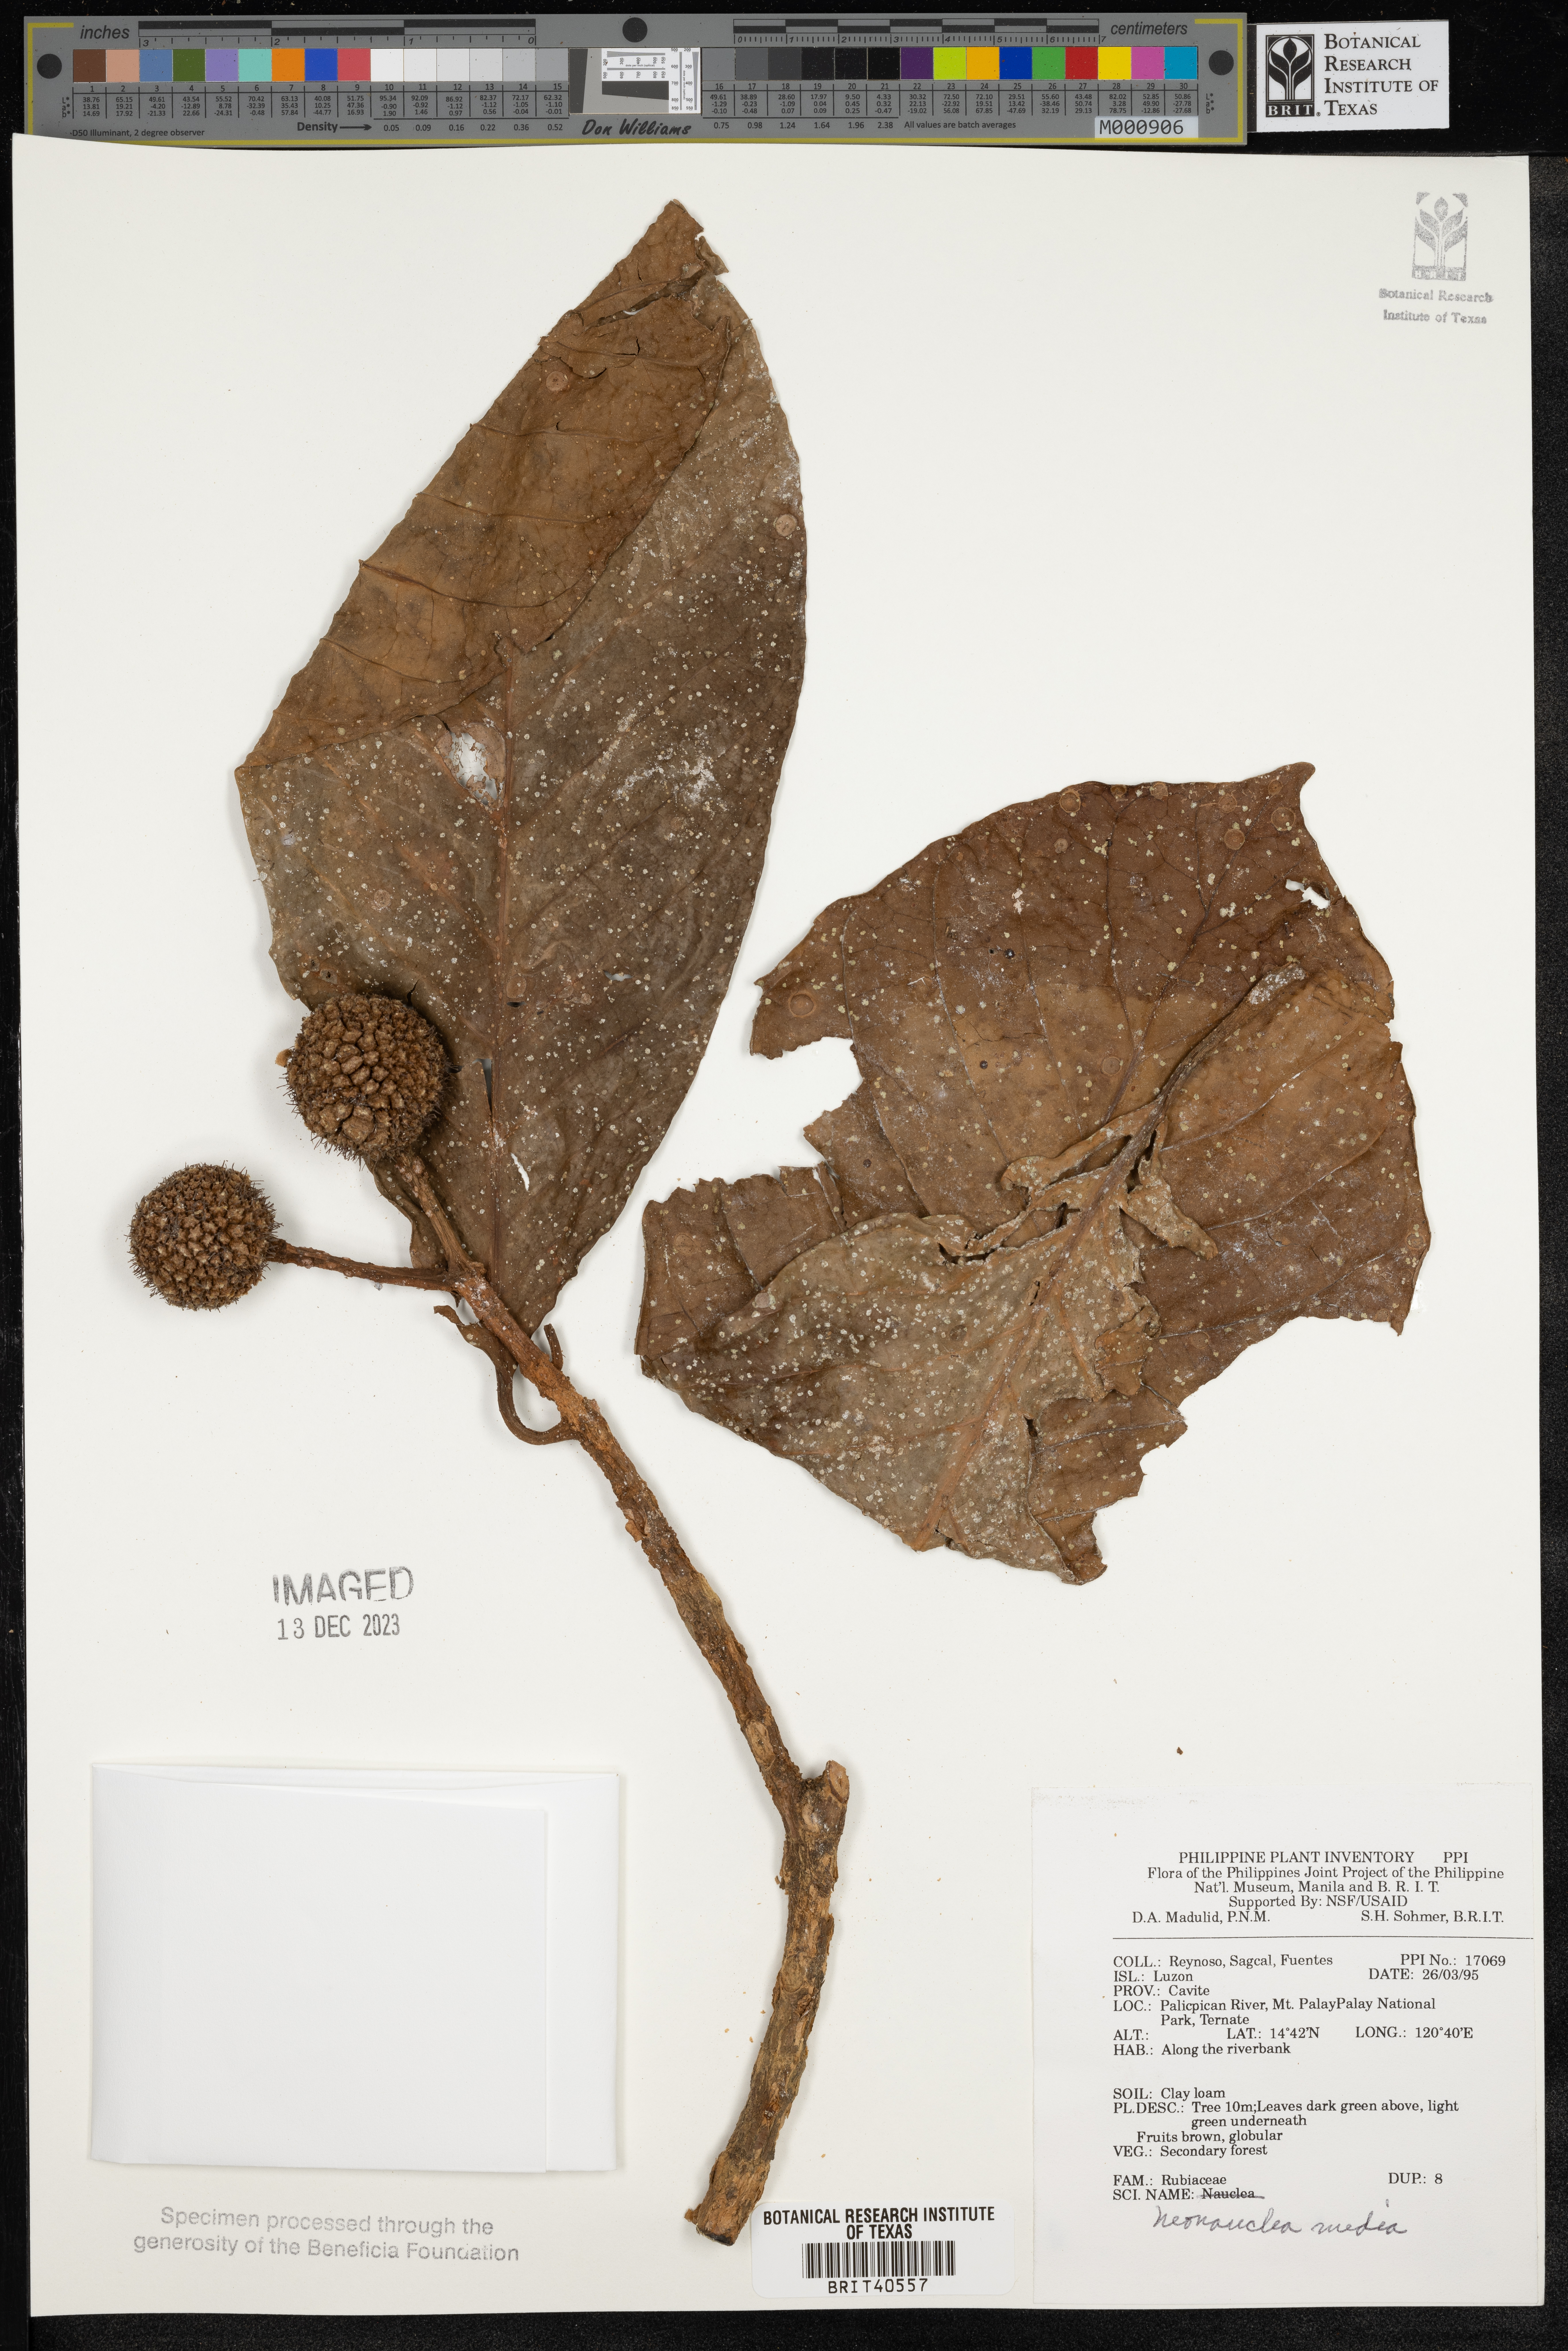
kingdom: Plantae
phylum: Tracheophyta
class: Magnoliopsida
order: Gentianales
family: Rubiaceae
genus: Neonauclea
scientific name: Neonauclea media
